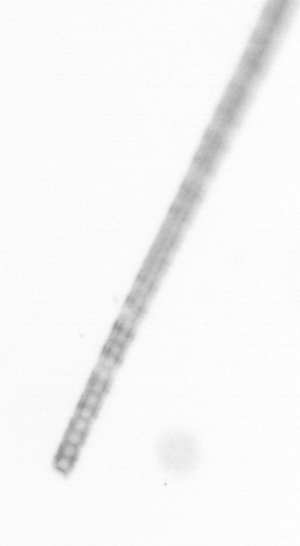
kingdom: Chromista
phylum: Ochrophyta
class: Bacillariophyceae
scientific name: Bacillariophyceae
